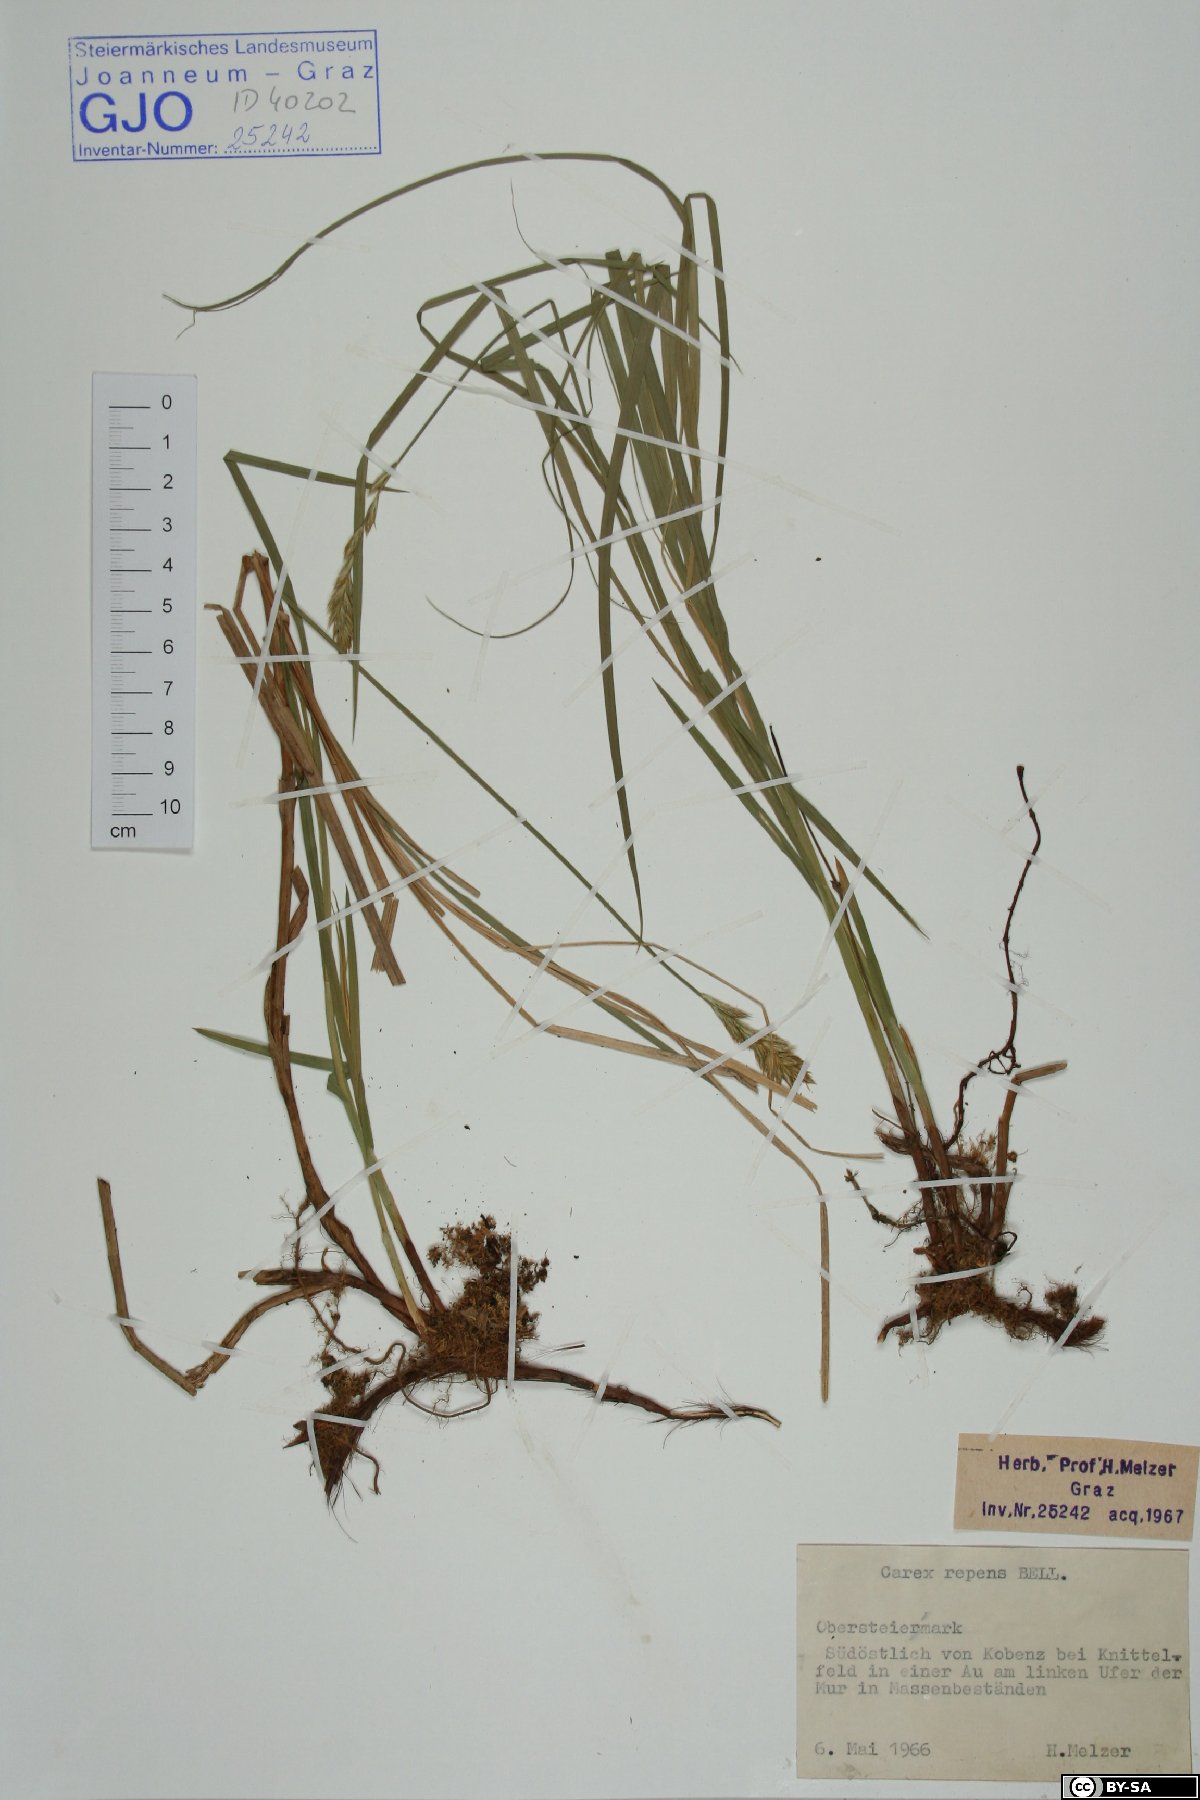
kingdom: Plantae
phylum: Tracheophyta
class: Liliopsida
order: Poales
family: Cyperaceae
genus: Carex
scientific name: Carex repens
